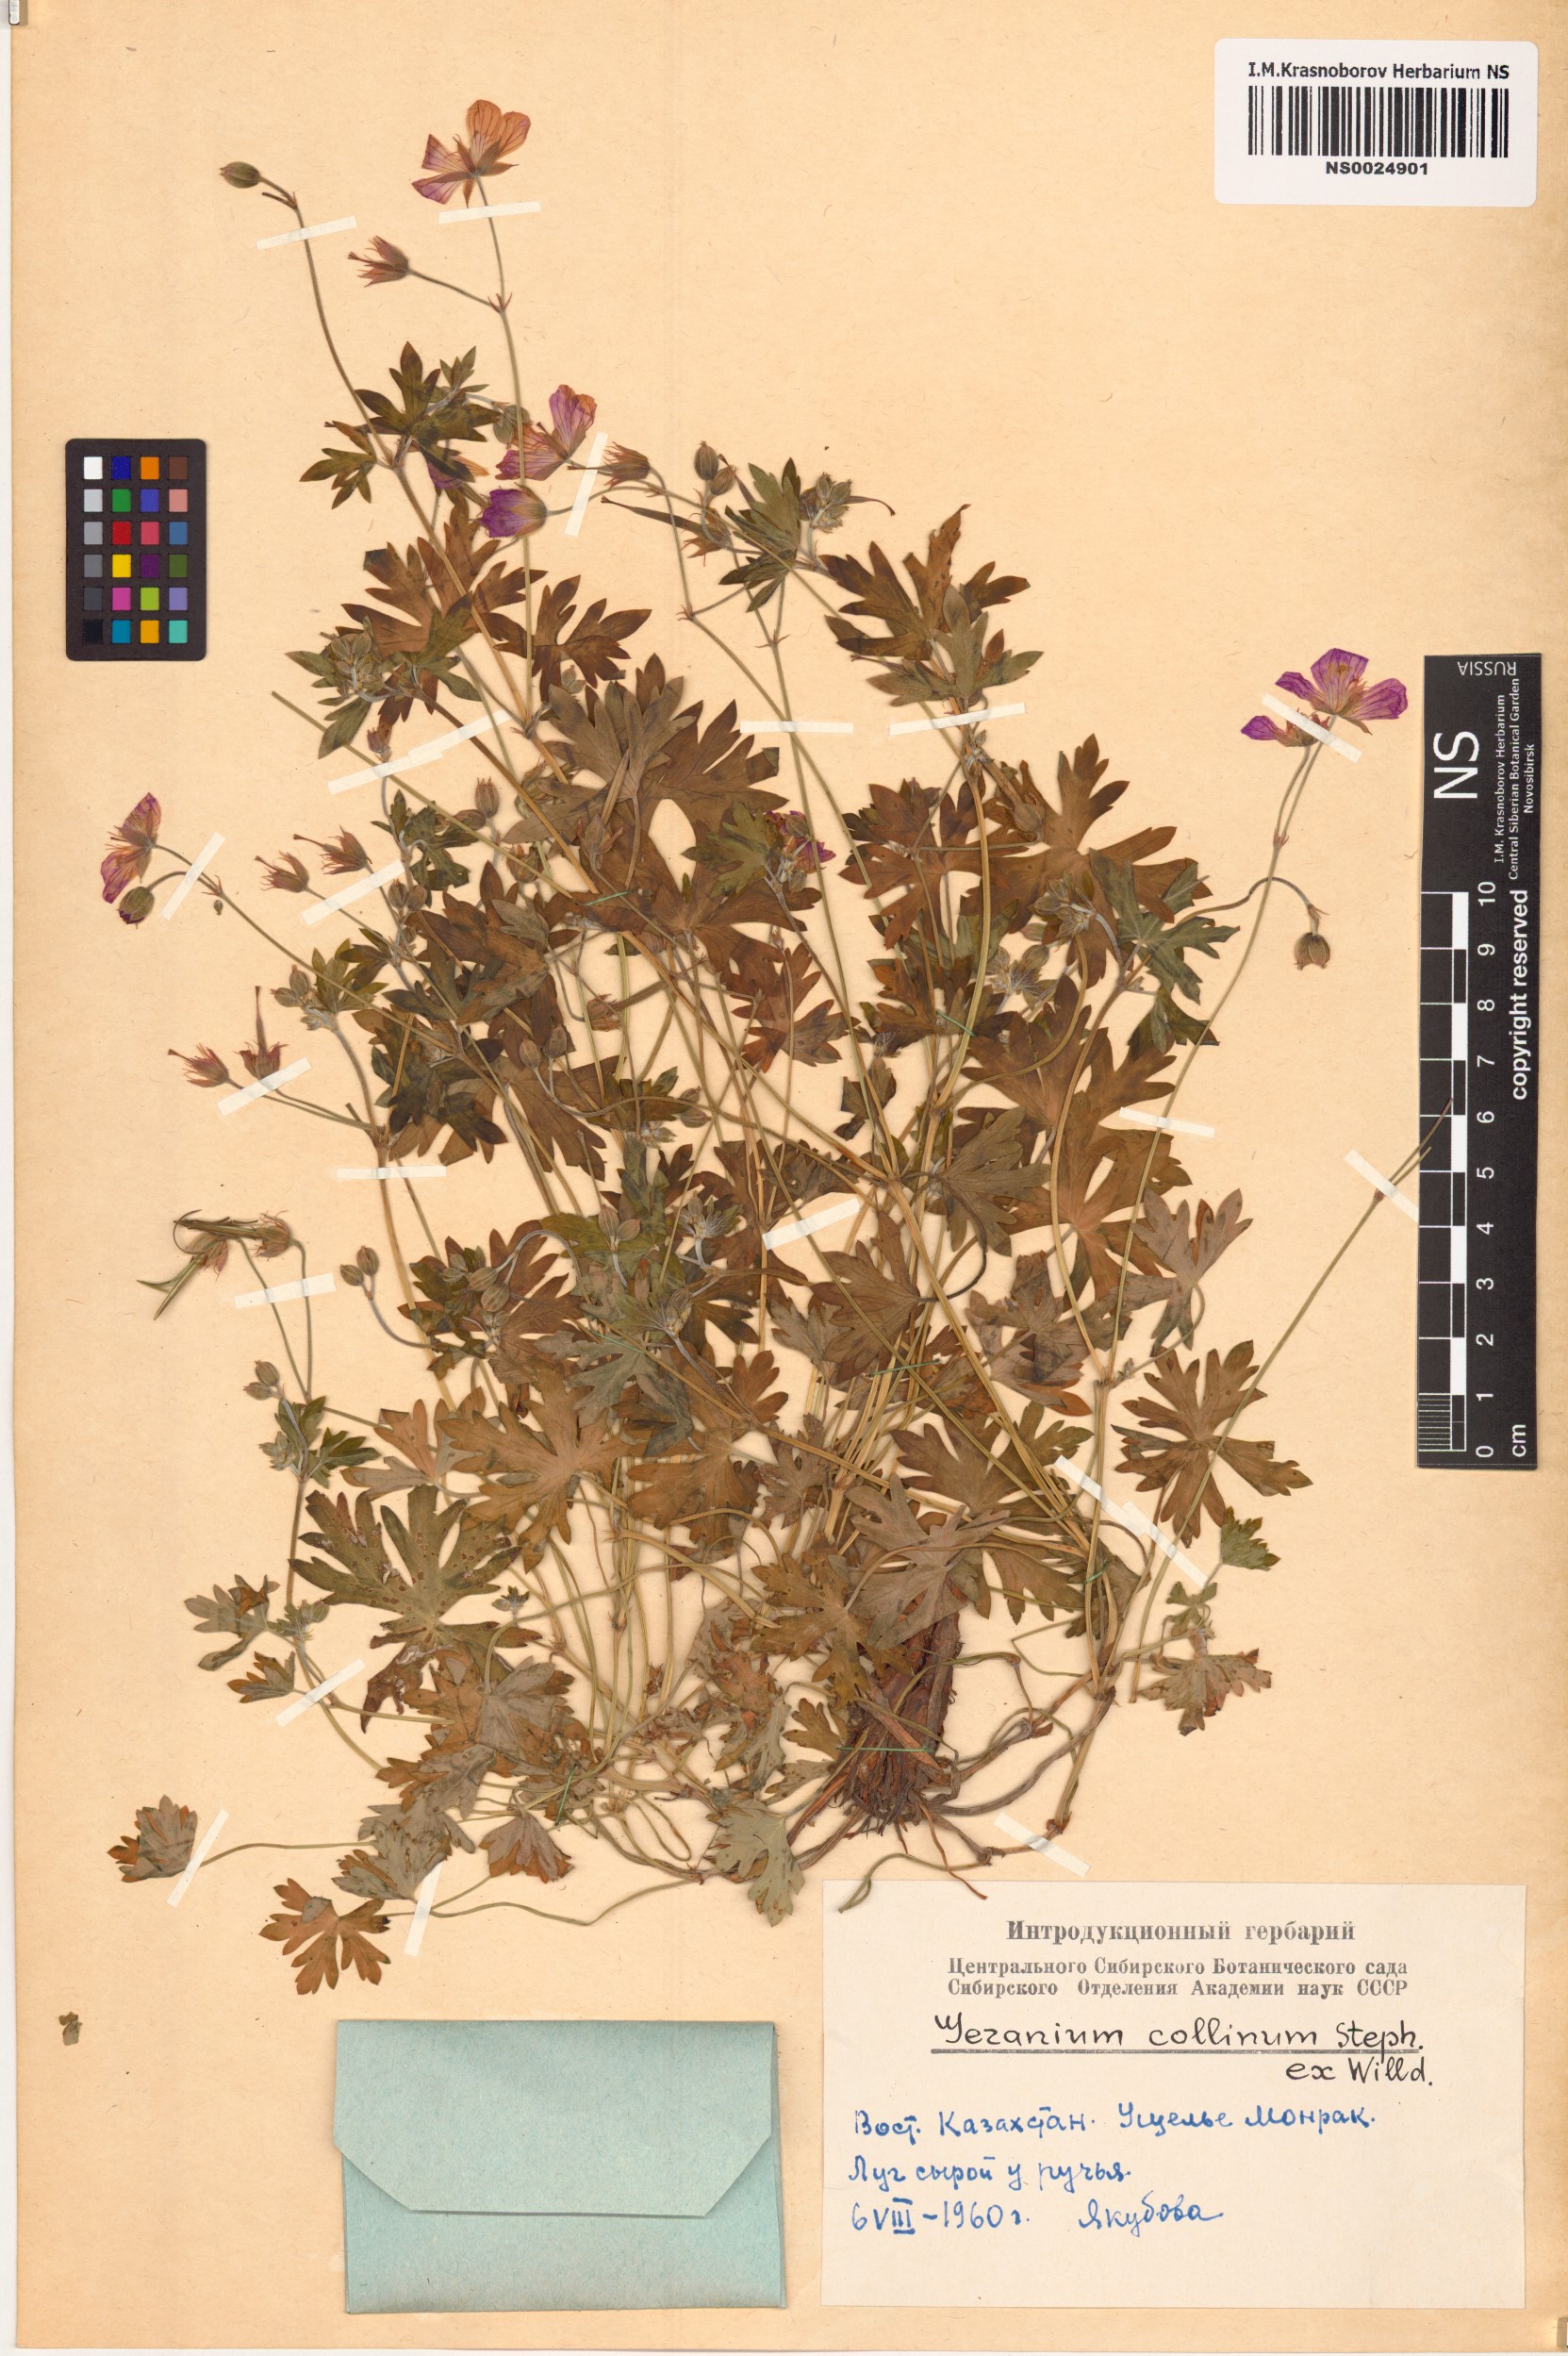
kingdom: Plantae
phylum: Tracheophyta
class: Magnoliopsida
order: Geraniales
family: Geraniaceae
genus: Geranium
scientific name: Geranium collinum
